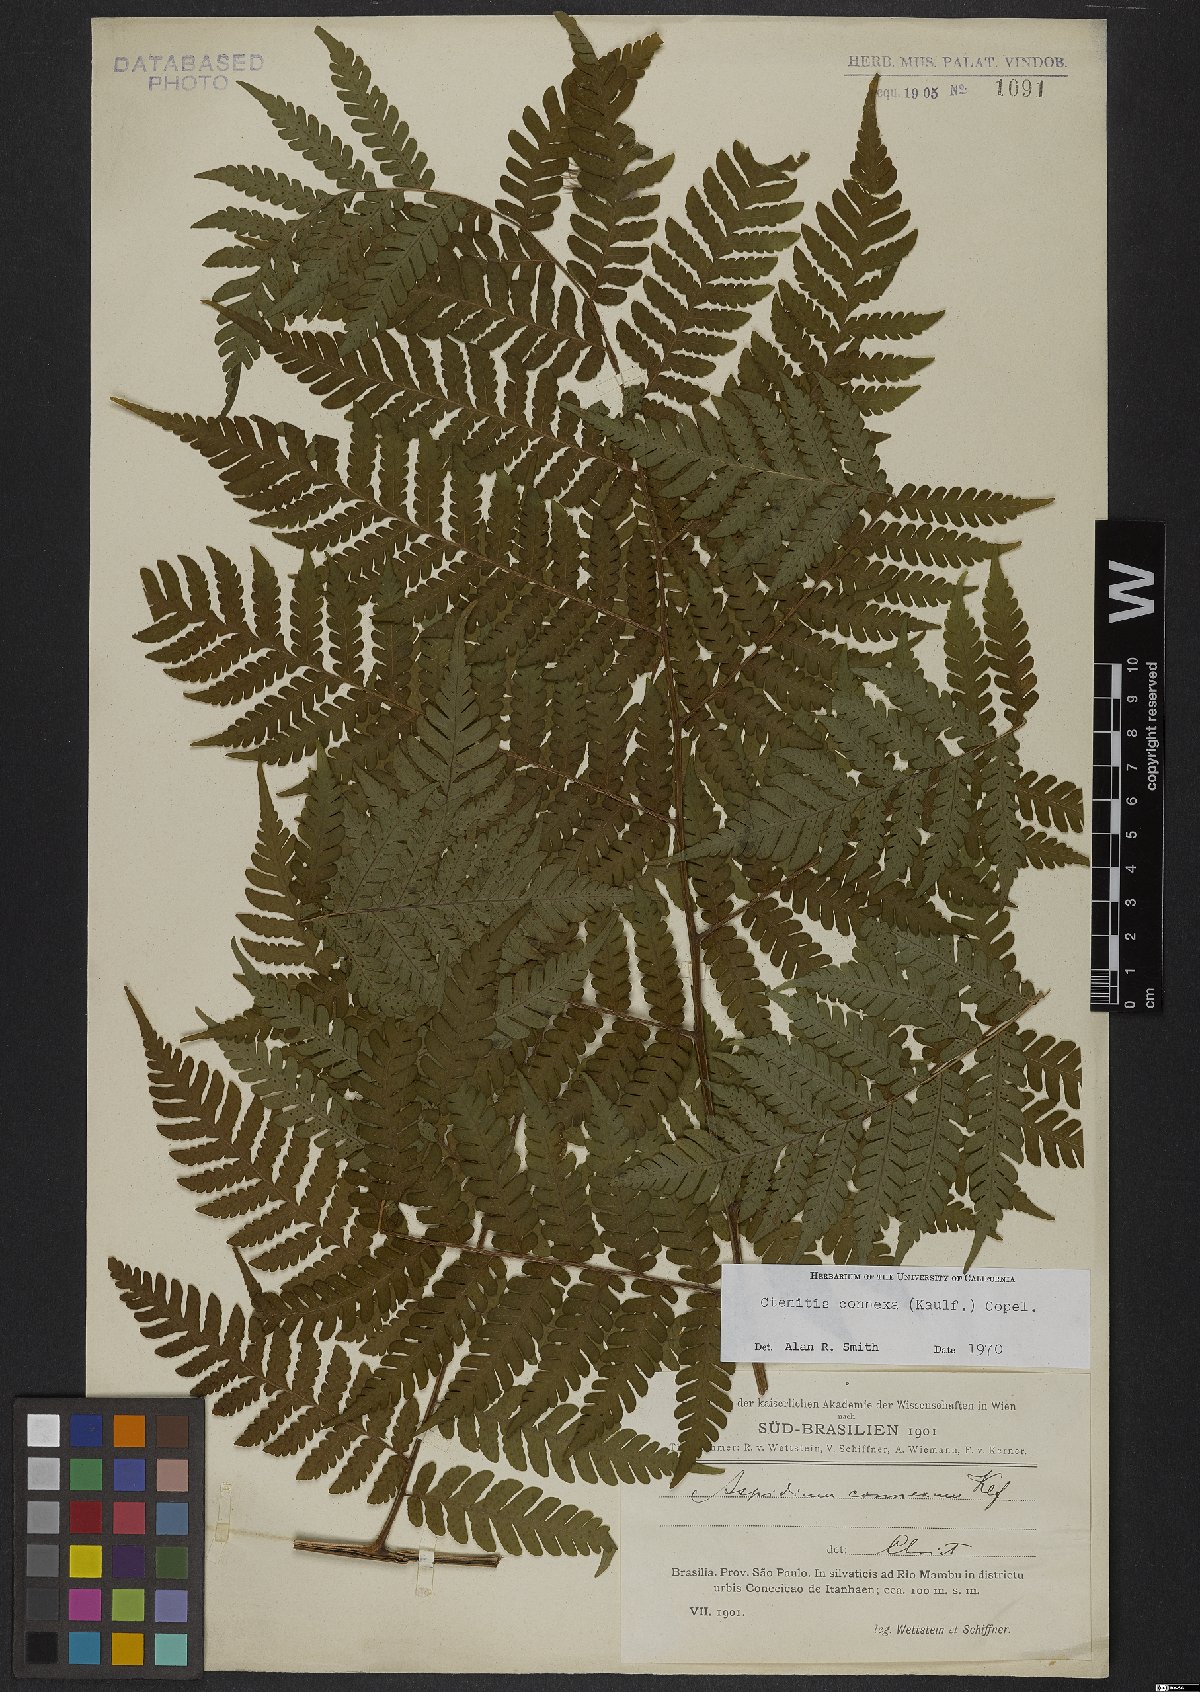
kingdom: Plantae
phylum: Tracheophyta
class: Polypodiopsida
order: Polypodiales
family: Dryopteridaceae
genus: Megalastrum
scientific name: Megalastrum connexum
